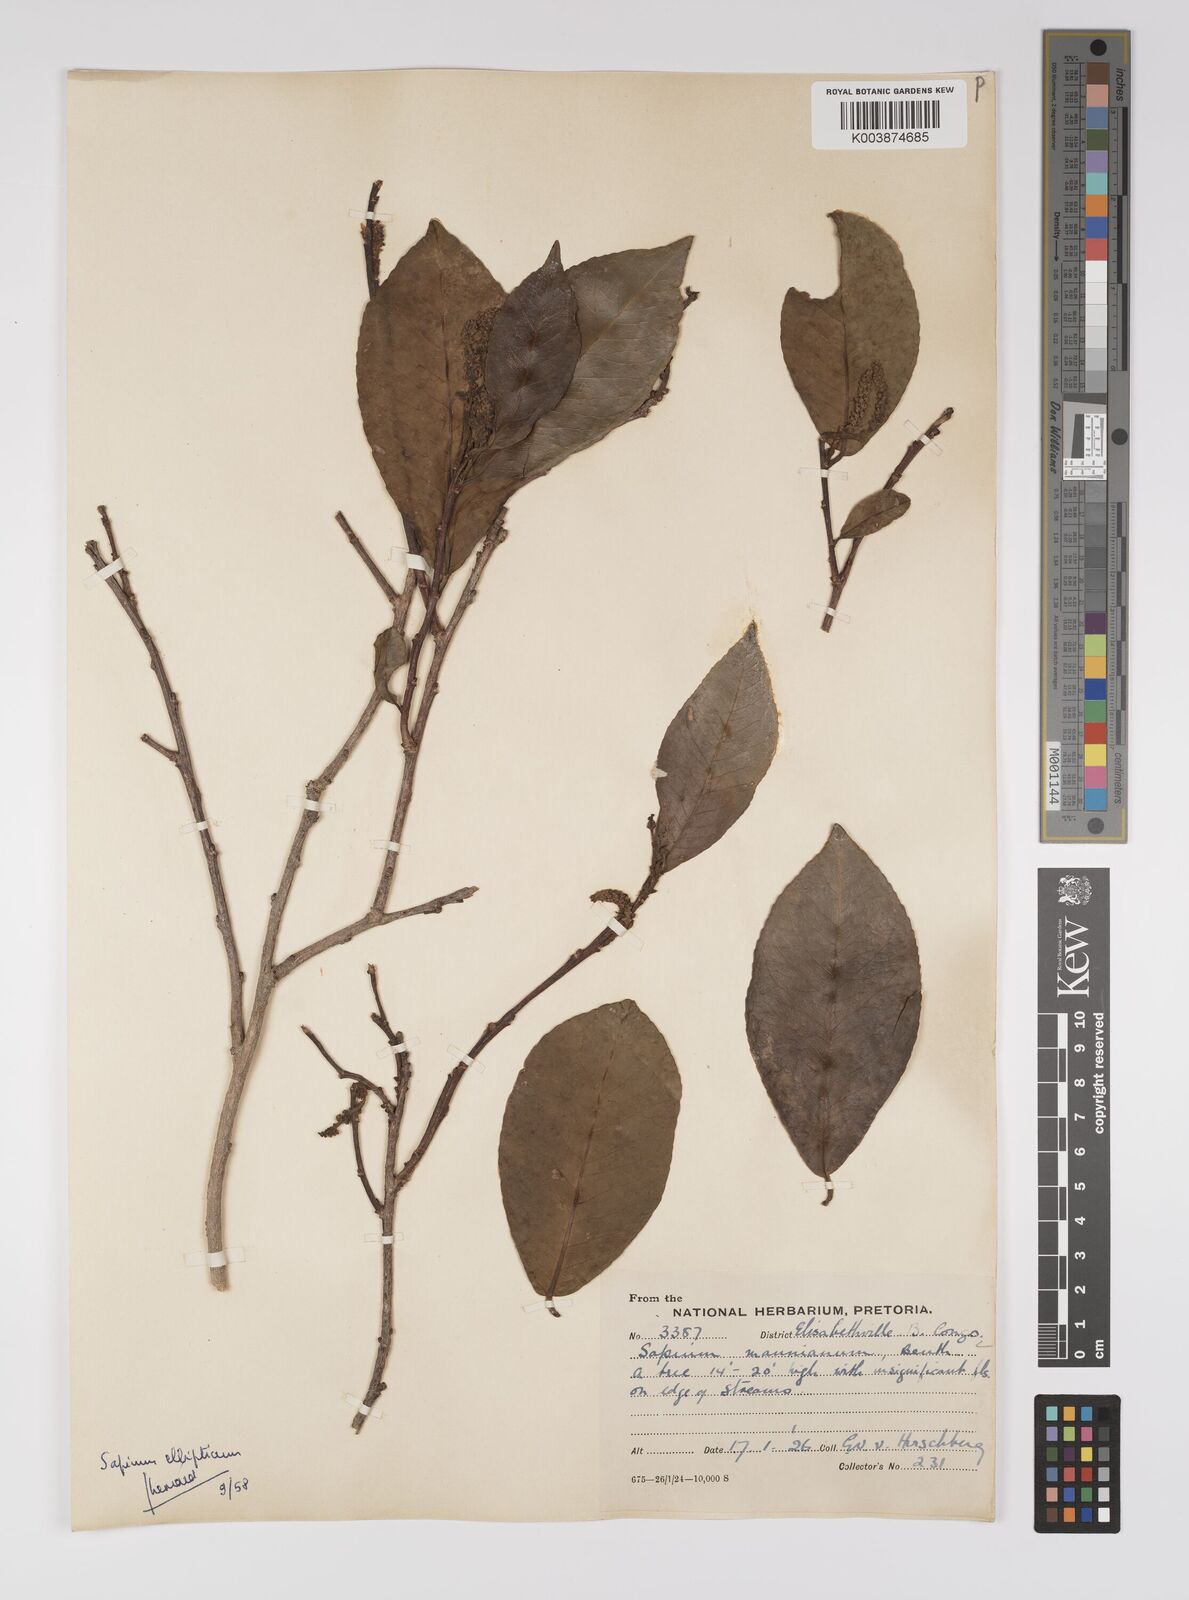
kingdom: Plantae
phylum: Tracheophyta
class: Magnoliopsida
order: Malpighiales
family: Euphorbiaceae
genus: Shirakiopsis
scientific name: Shirakiopsis elliptica
